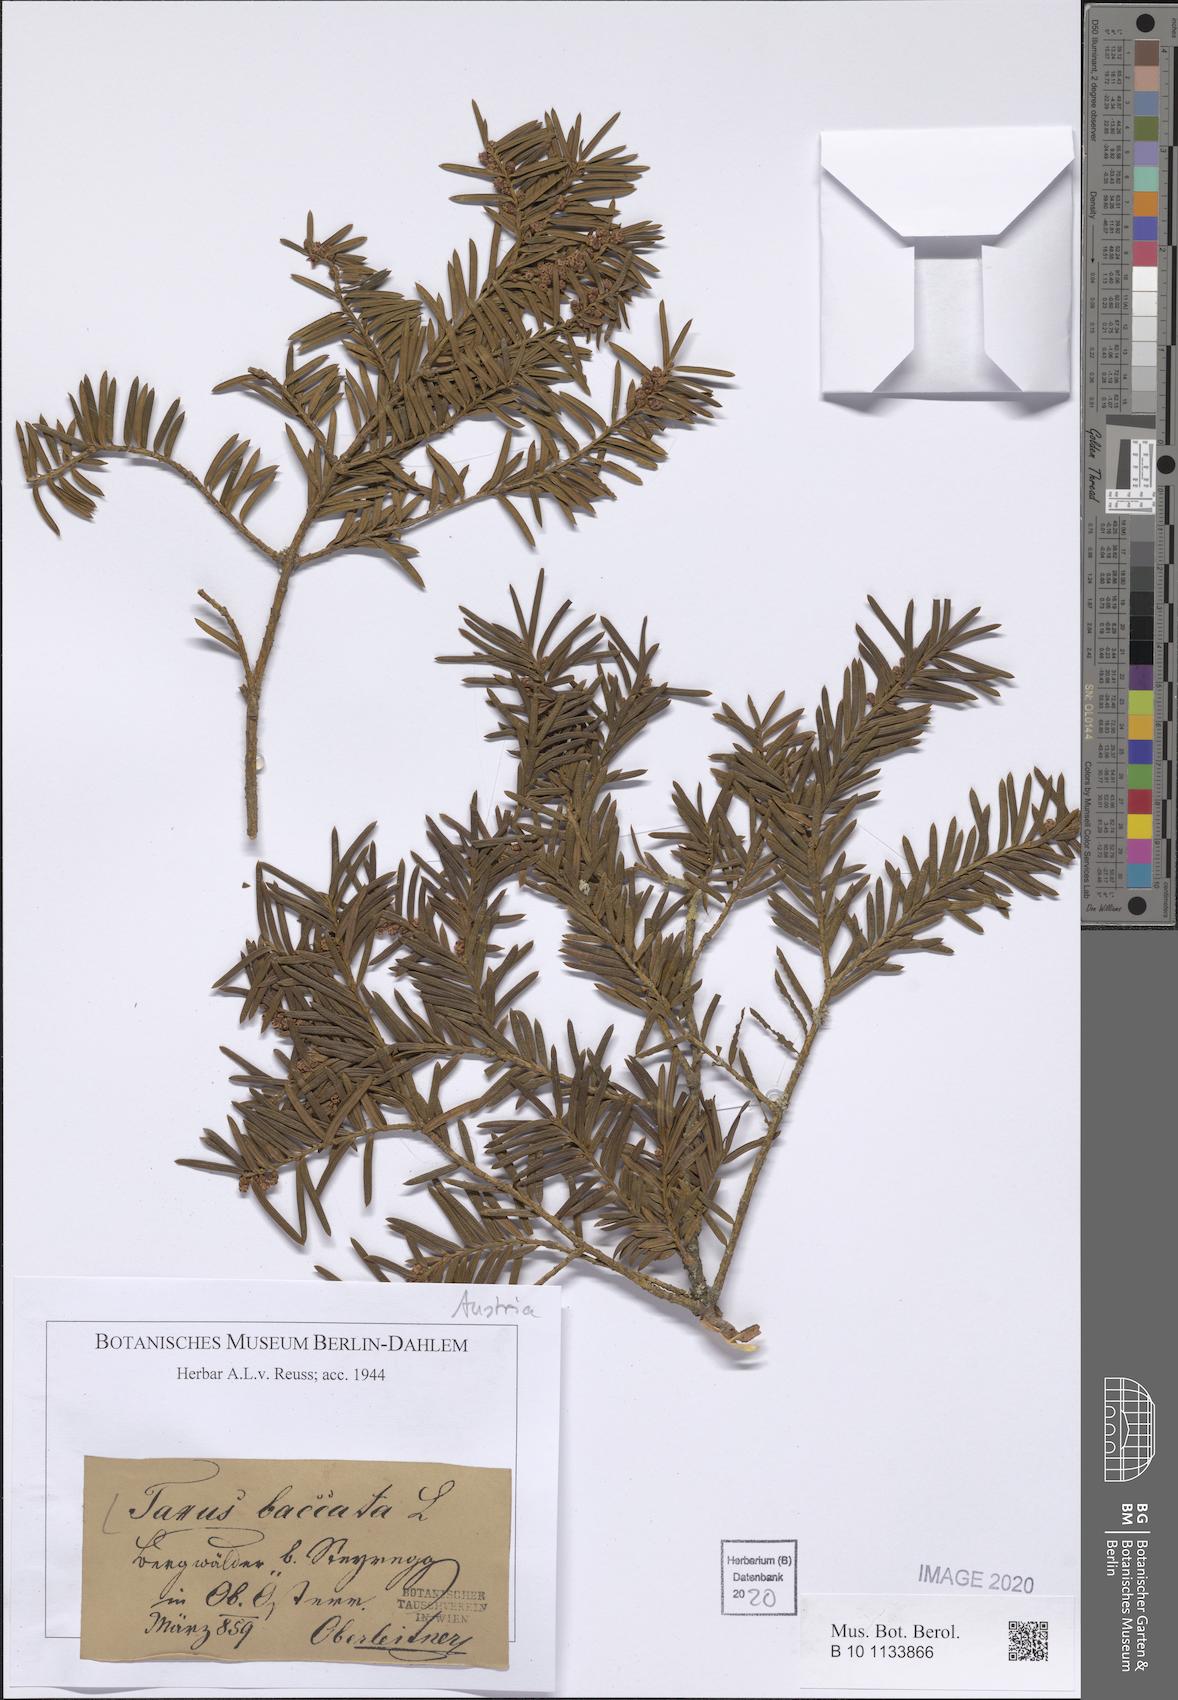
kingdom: Plantae
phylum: Tracheophyta
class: Pinopsida
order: Pinales
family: Taxaceae
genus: Taxus
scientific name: Taxus baccata
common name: Yew
